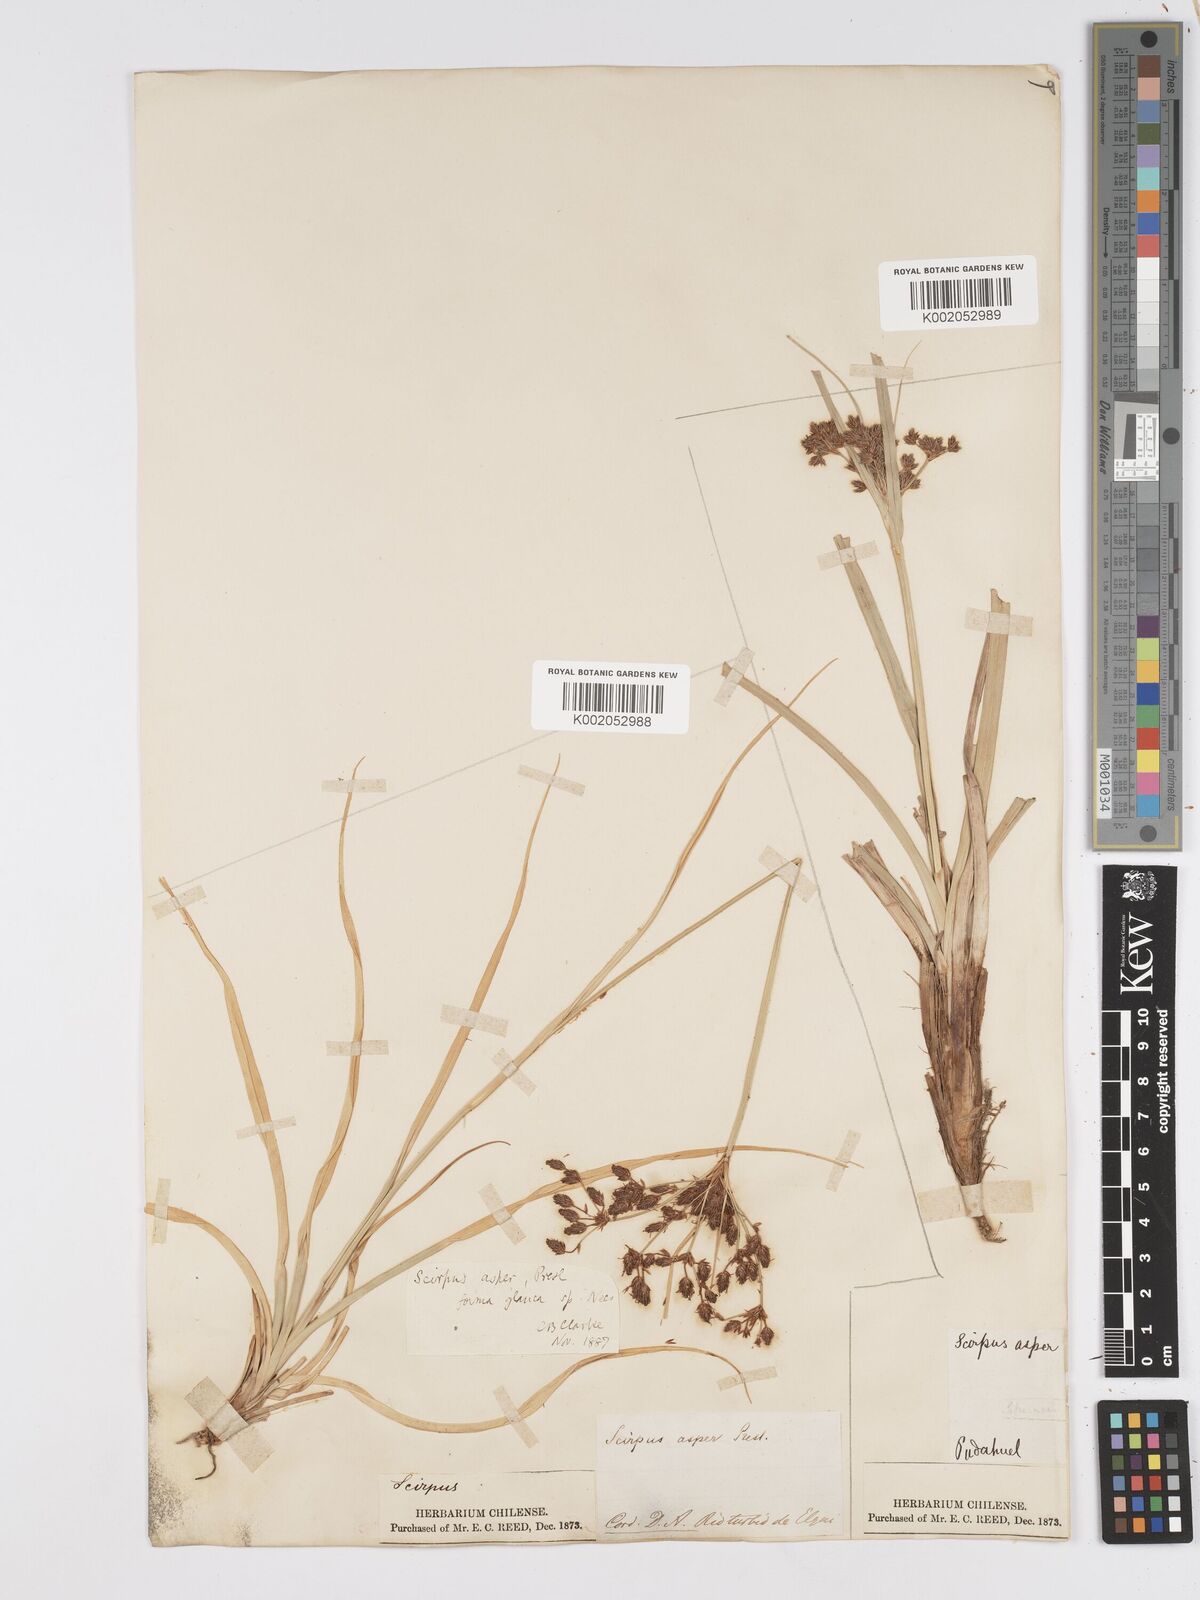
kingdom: Plantae
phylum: Tracheophyta
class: Liliopsida
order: Poales
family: Cyperaceae
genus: Rhodoscirpus
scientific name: Rhodoscirpus asper
